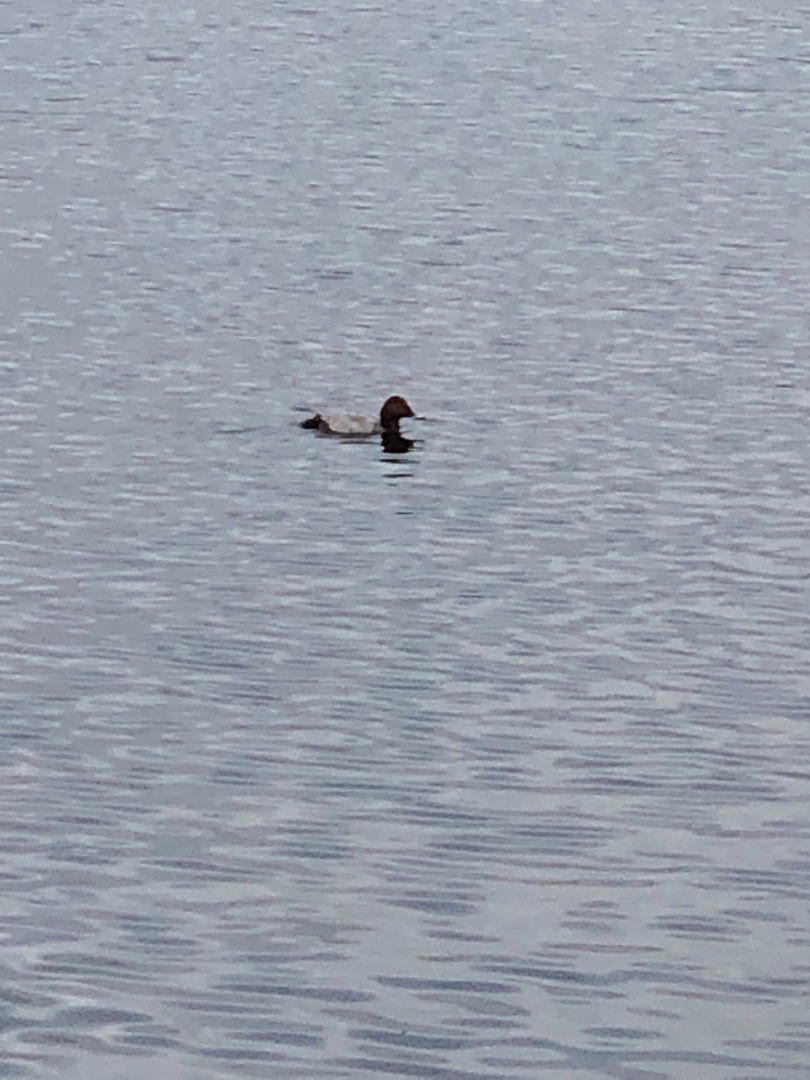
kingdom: Animalia
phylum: Chordata
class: Aves
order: Anseriformes
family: Anatidae
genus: Aythya
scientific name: Aythya ferina
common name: Taffeland
